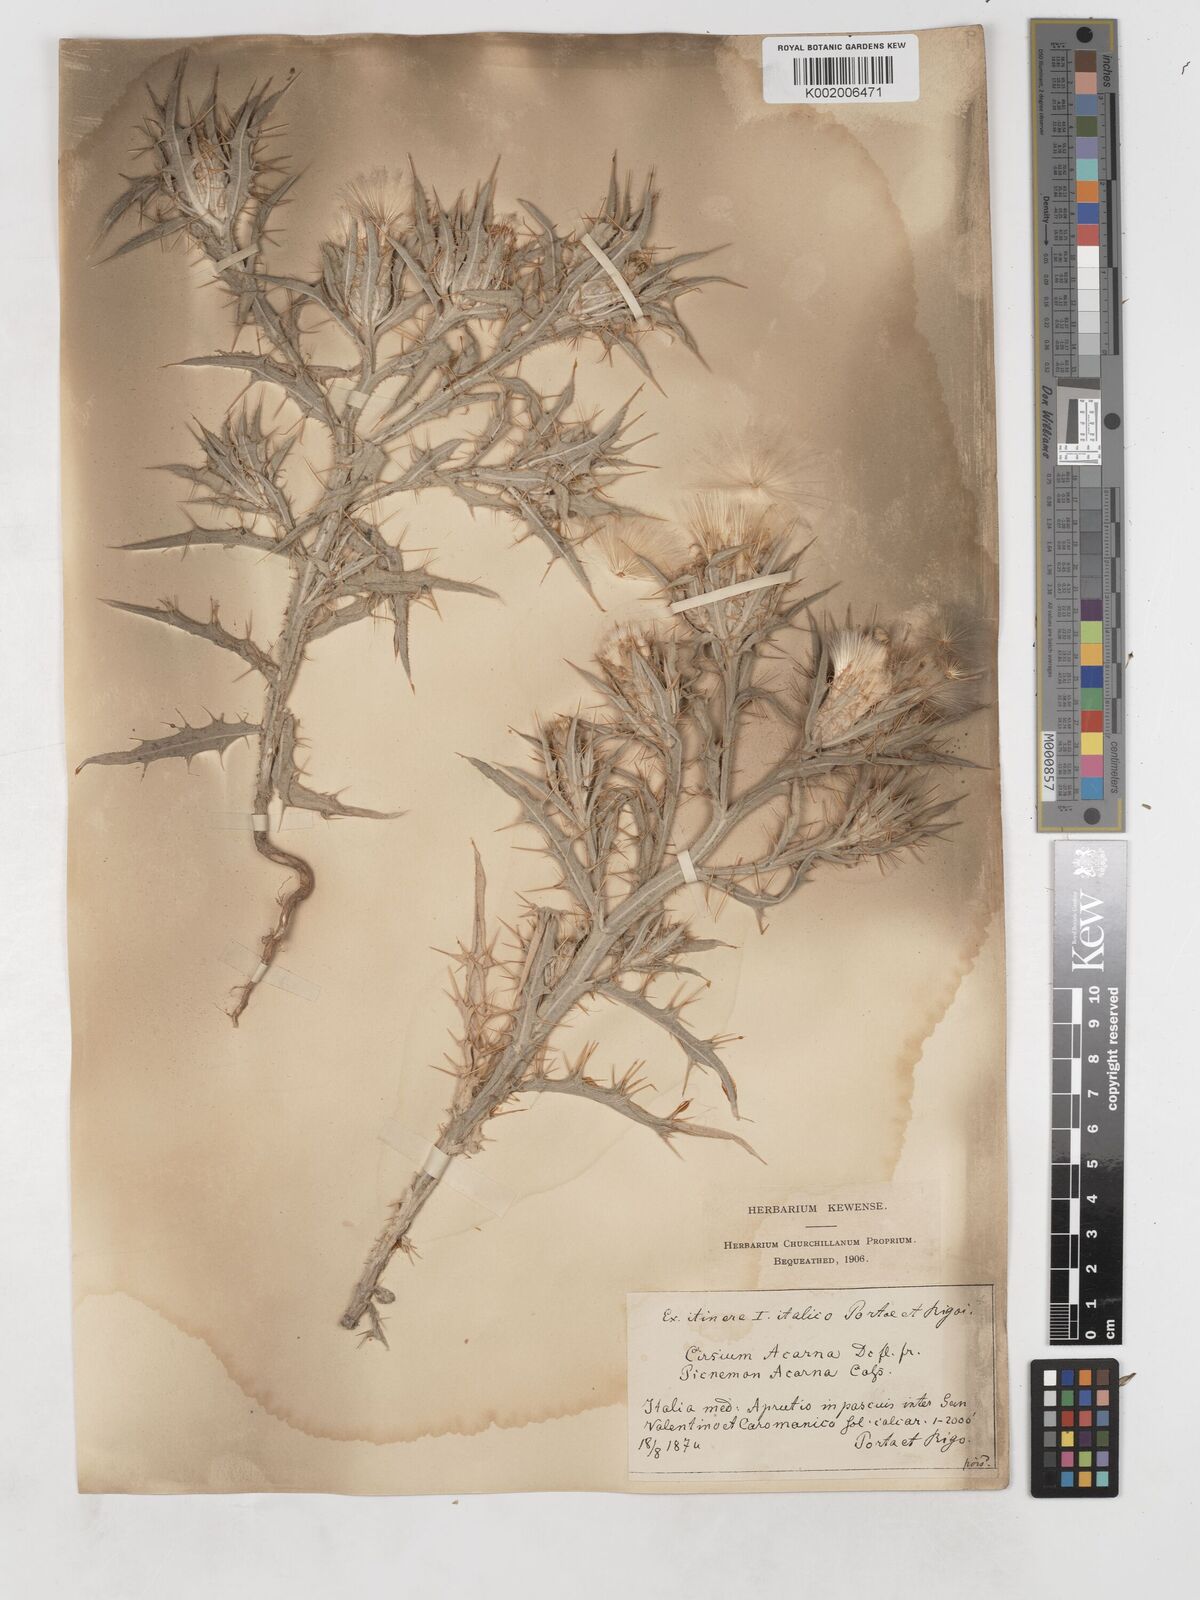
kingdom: Plantae
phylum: Tracheophyta
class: Magnoliopsida
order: Asterales
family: Asteraceae
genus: Picnomon
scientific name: Picnomon acarna
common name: Soldier thistle
